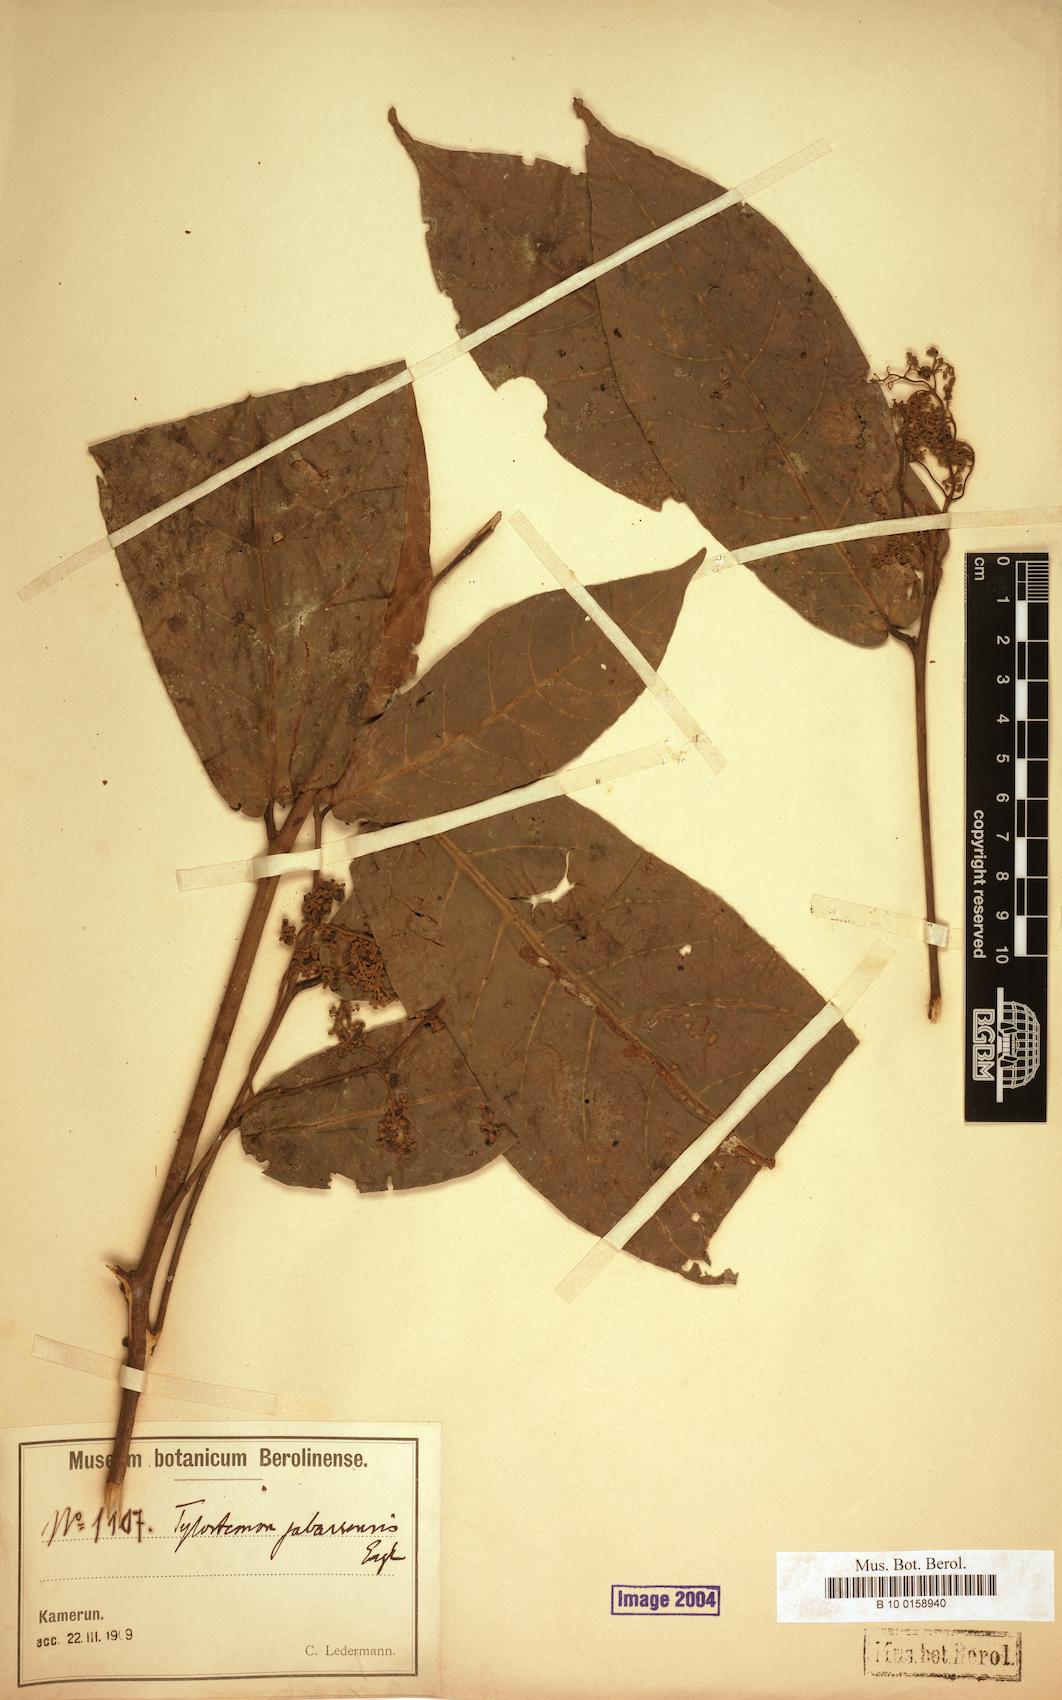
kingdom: Plantae
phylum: Tracheophyta
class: Magnoliopsida
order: Laurales
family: Lauraceae
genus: Beilschmiedia
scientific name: Beilschmiedia jabassensis
